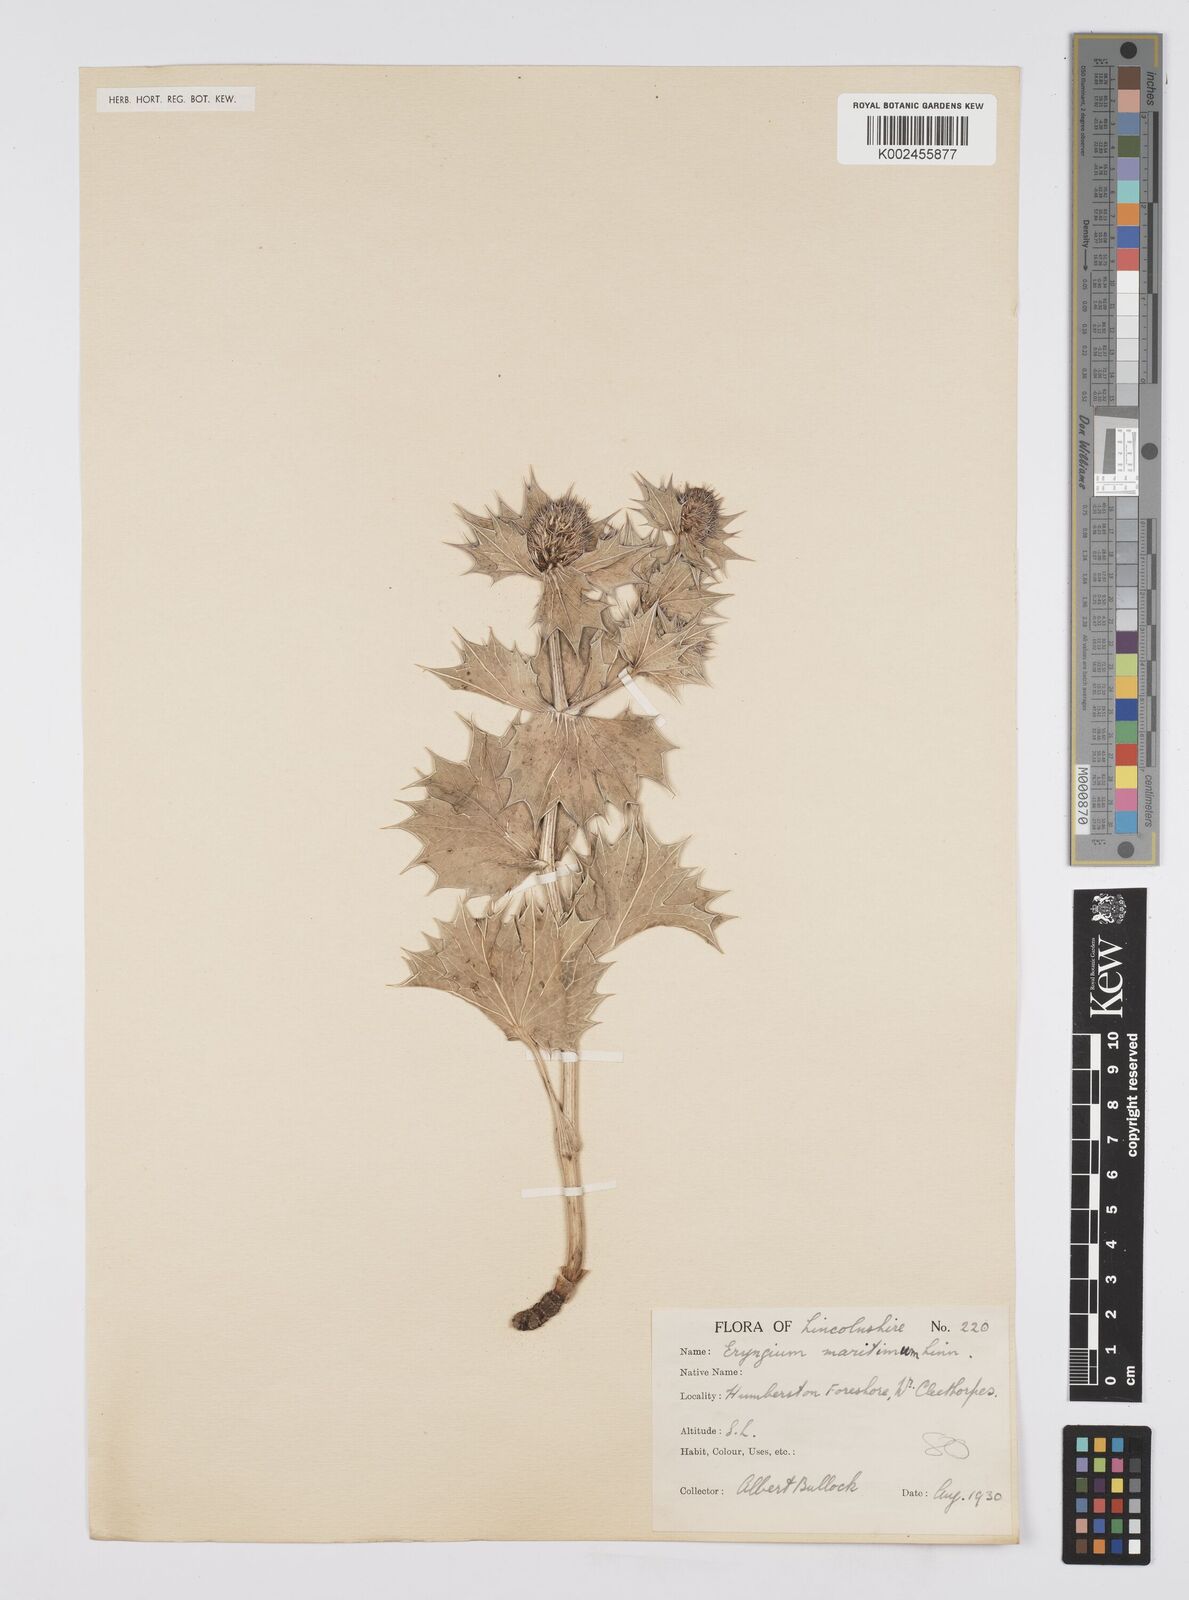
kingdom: Plantae
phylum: Tracheophyta
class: Magnoliopsida
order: Apiales
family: Apiaceae
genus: Eryngium
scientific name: Eryngium maritimum
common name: Sea-holly
